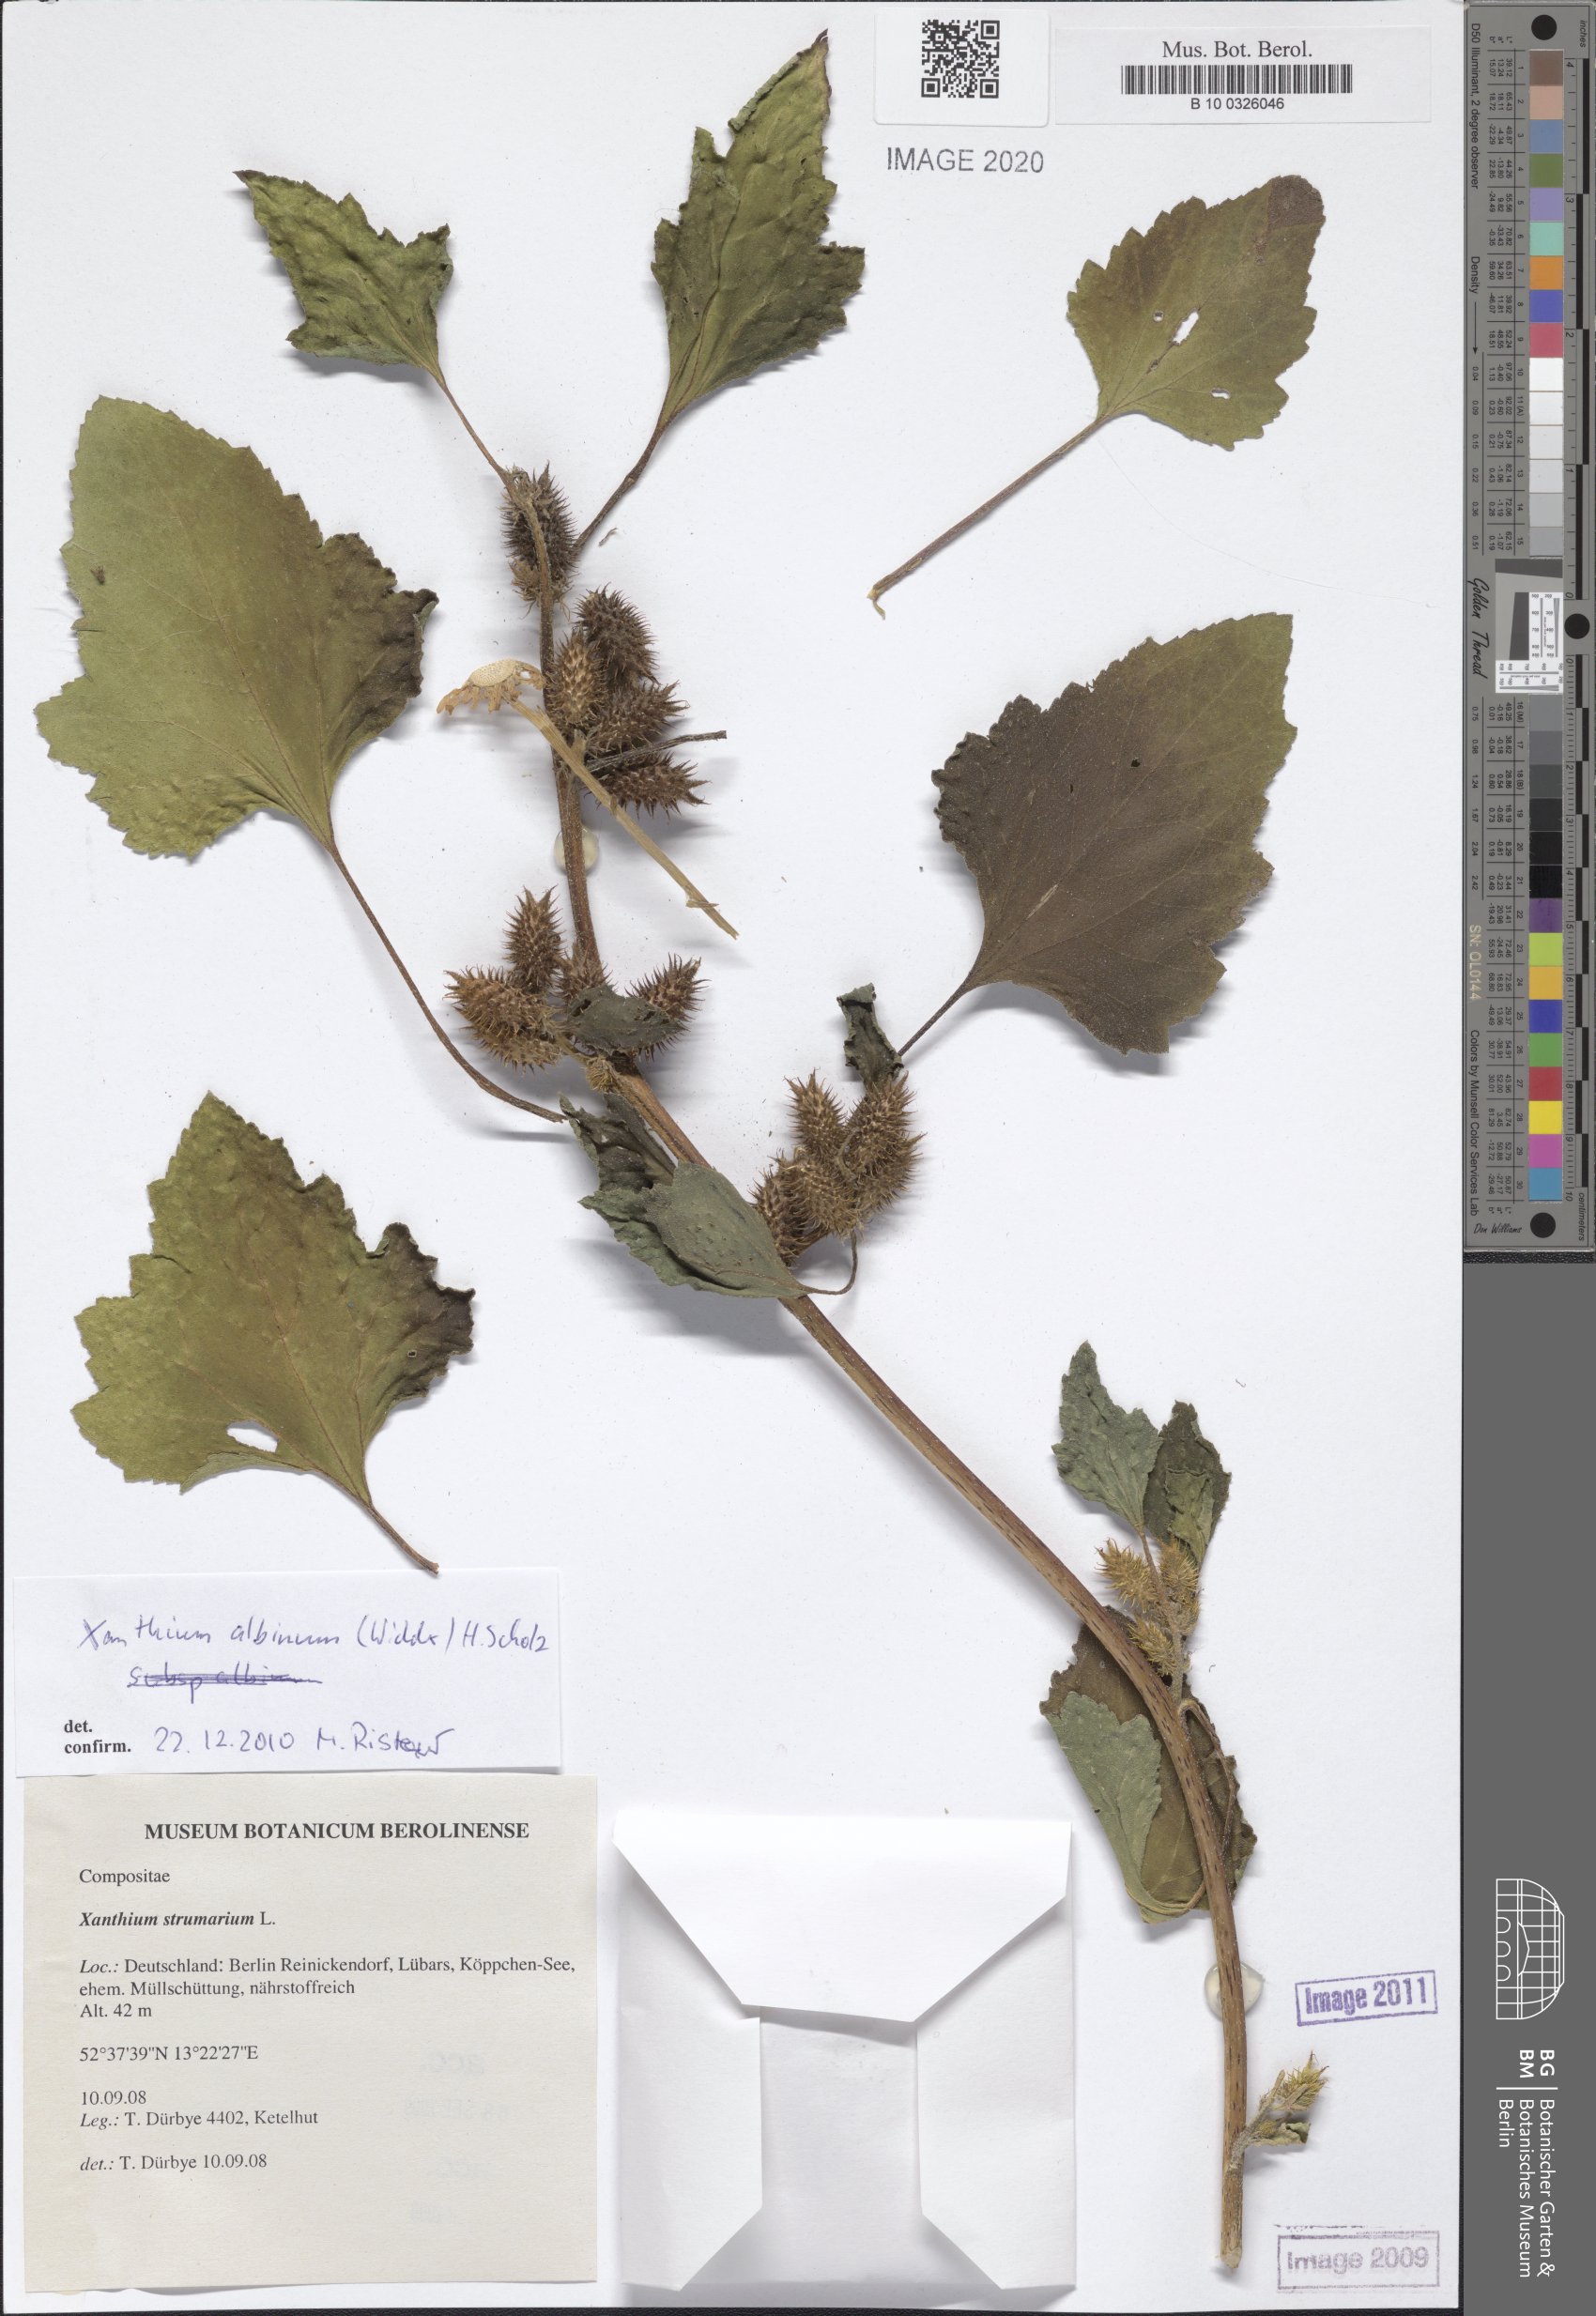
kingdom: Plantae
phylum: Tracheophyta
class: Magnoliopsida
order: Asterales
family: Asteraceae
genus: Xanthium
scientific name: Xanthium orientale
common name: Californian burr
